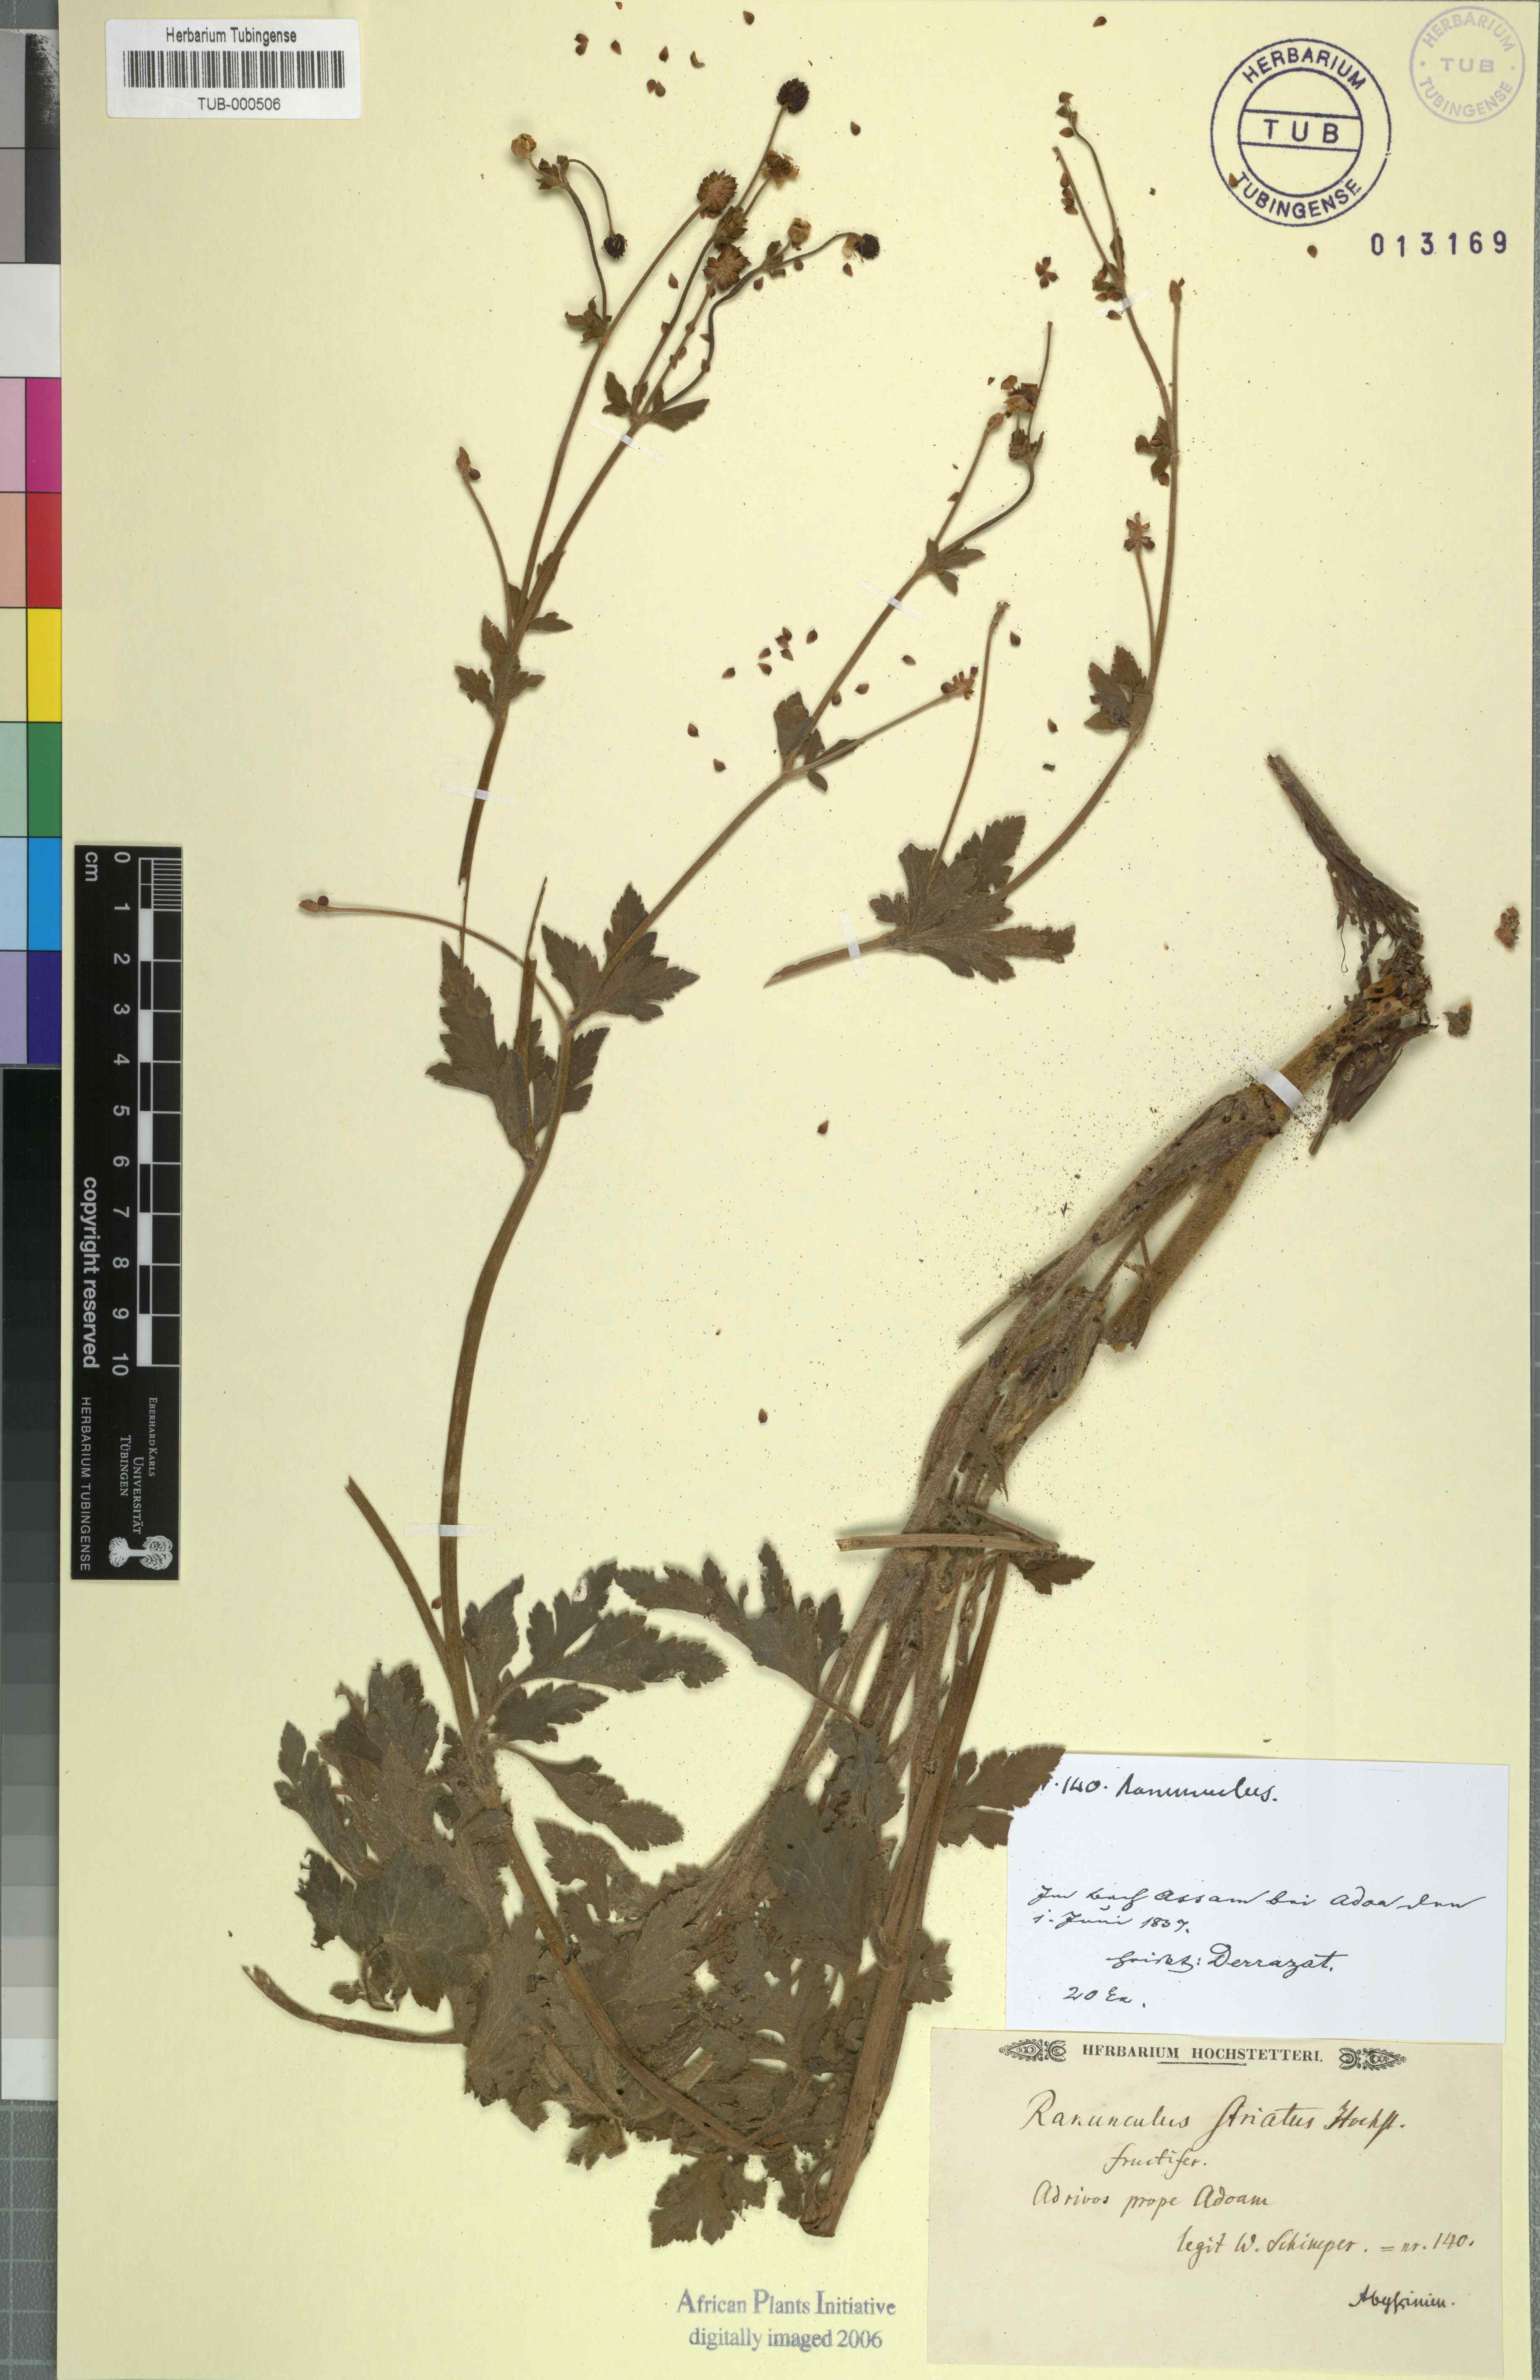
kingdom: Plantae
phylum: Tracheophyta
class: Magnoliopsida
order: Ranunculales
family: Ranunculaceae
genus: Ranunculus
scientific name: Ranunculus multifidus
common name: Wild buttercup
